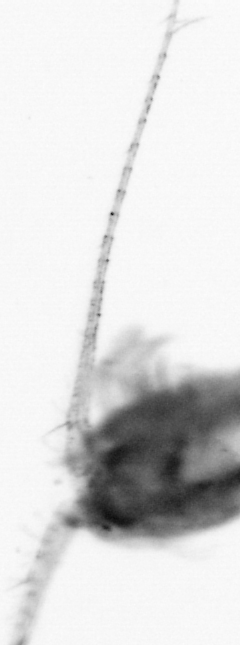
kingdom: Animalia
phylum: Arthropoda
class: Copepoda
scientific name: Copepoda
